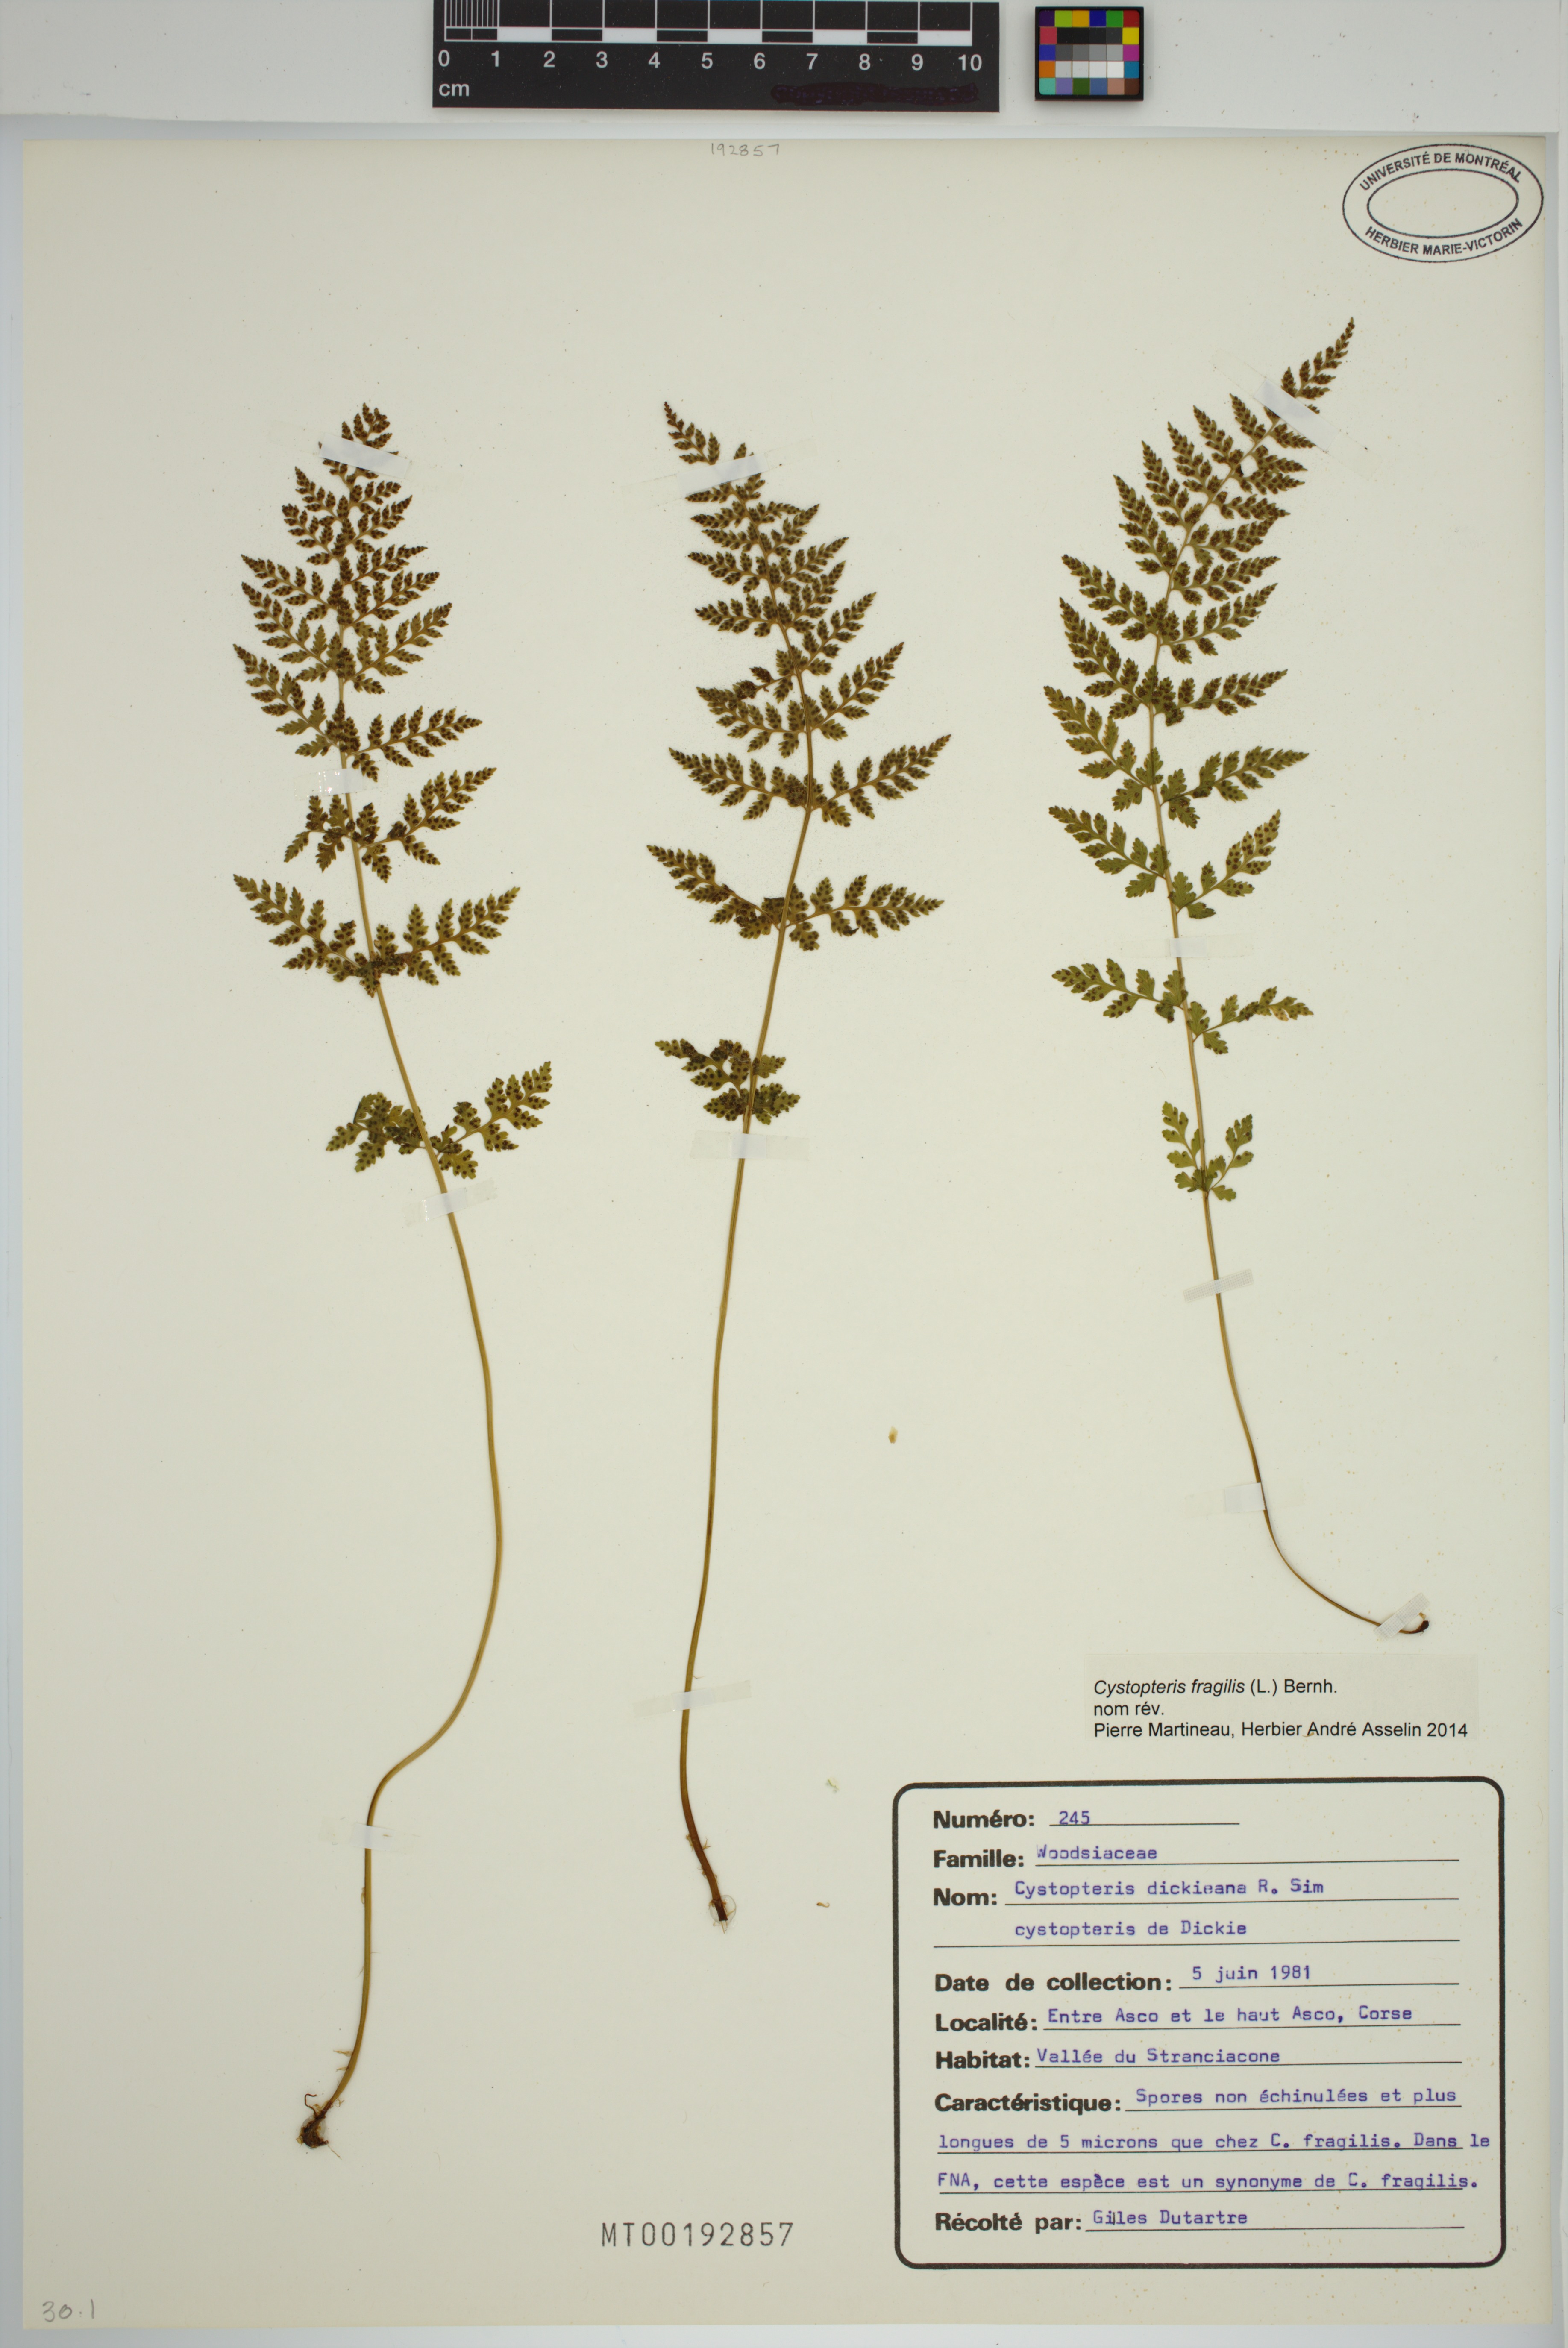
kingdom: Plantae
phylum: Tracheophyta
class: Polypodiopsida
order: Polypodiales
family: Cystopteridaceae
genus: Cystopteris
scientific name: Cystopteris fragilis
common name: Brittle bladder fern
